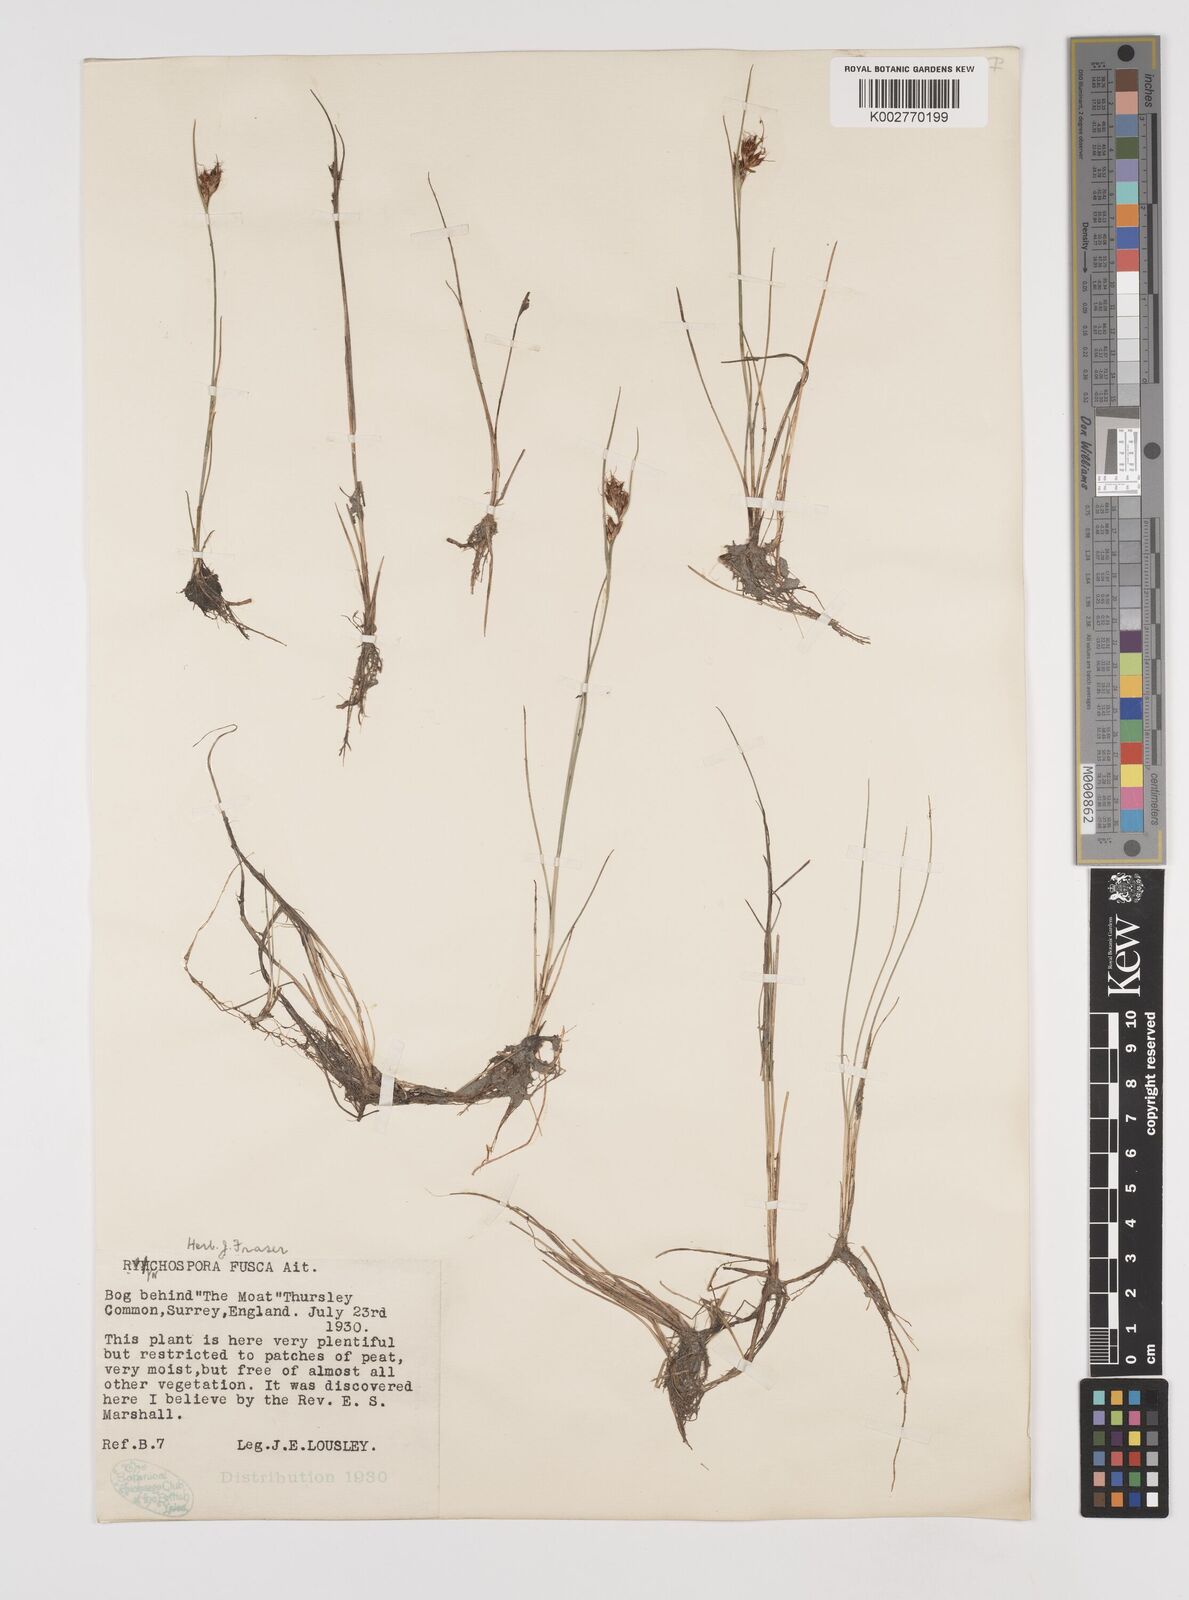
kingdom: Plantae
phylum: Tracheophyta
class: Liliopsida
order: Poales
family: Cyperaceae
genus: Rhynchospora
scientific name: Rhynchospora fusca
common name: Brown beak-sedge
